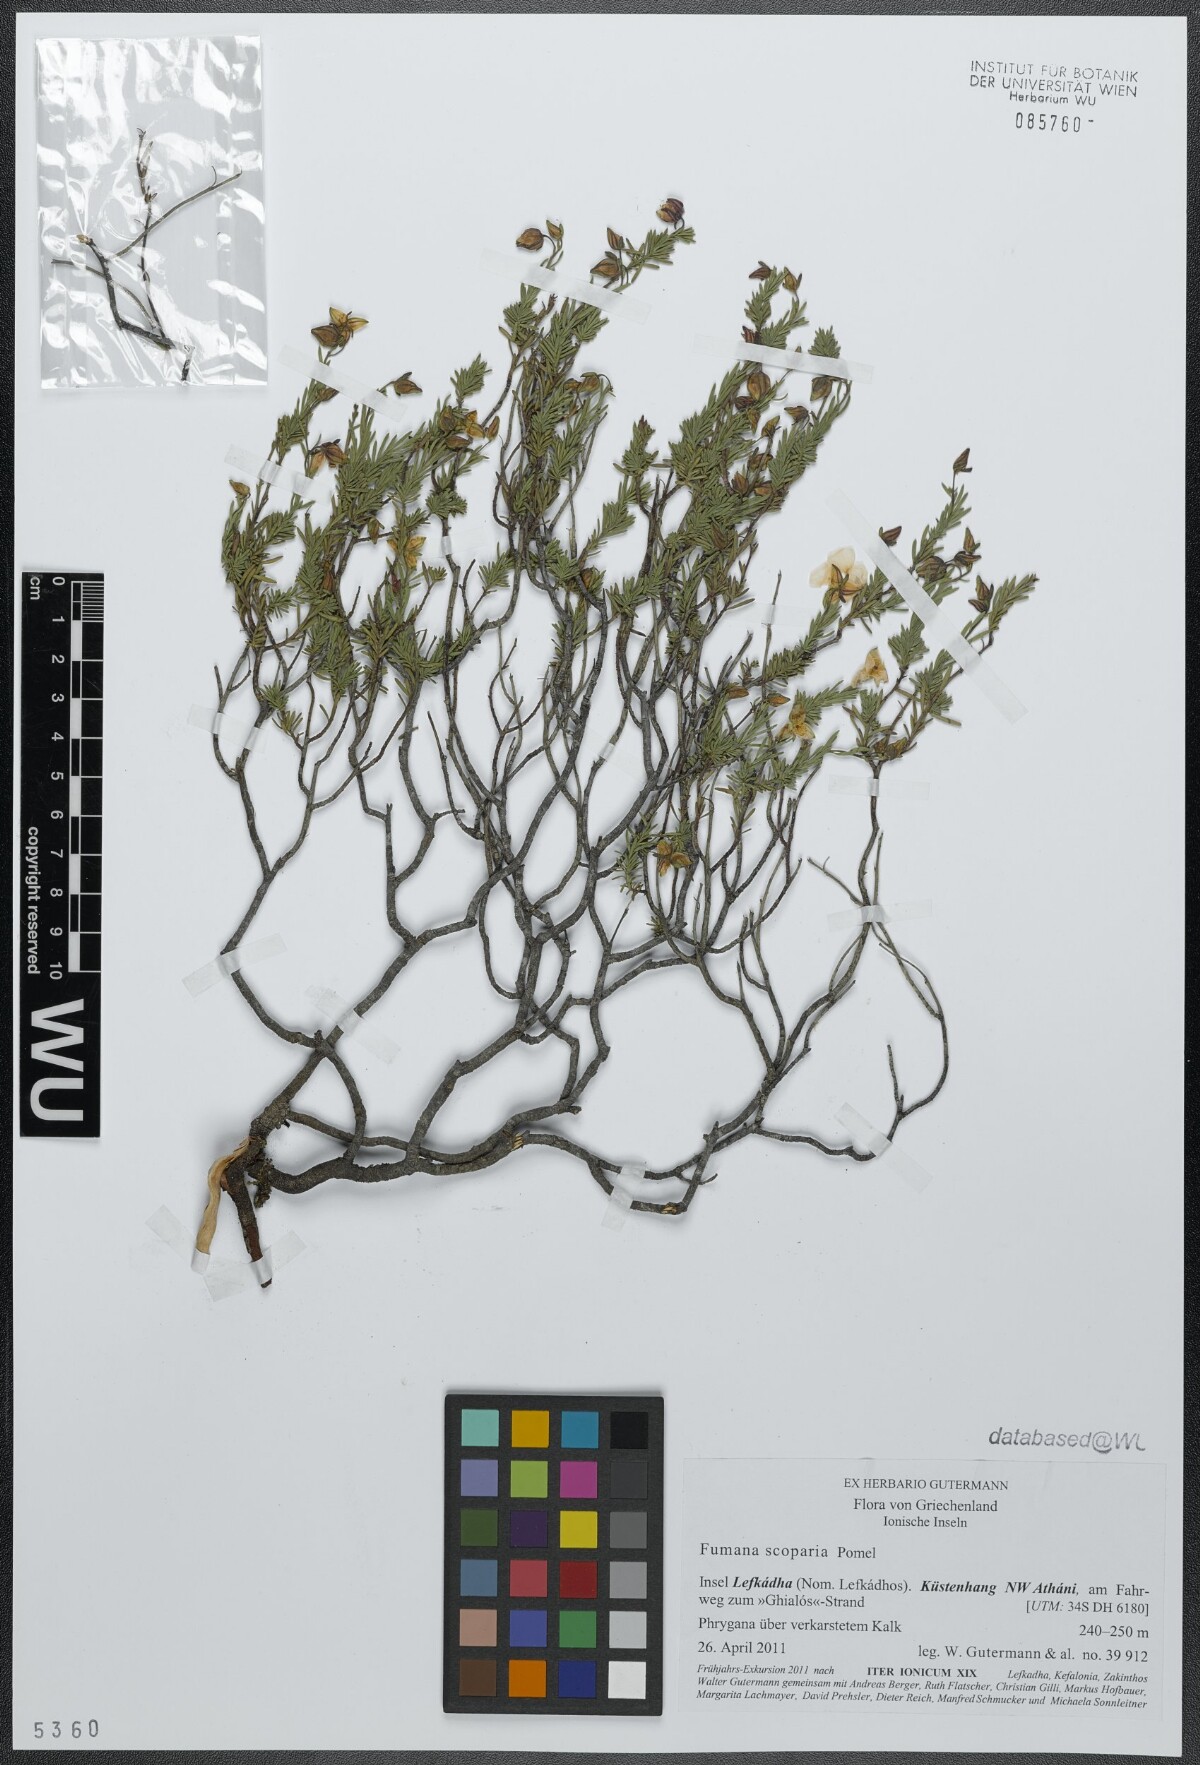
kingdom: Plantae
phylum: Tracheophyta
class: Magnoliopsida
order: Malvales
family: Cistaceae
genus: Fumana
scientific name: Fumana scoparia
